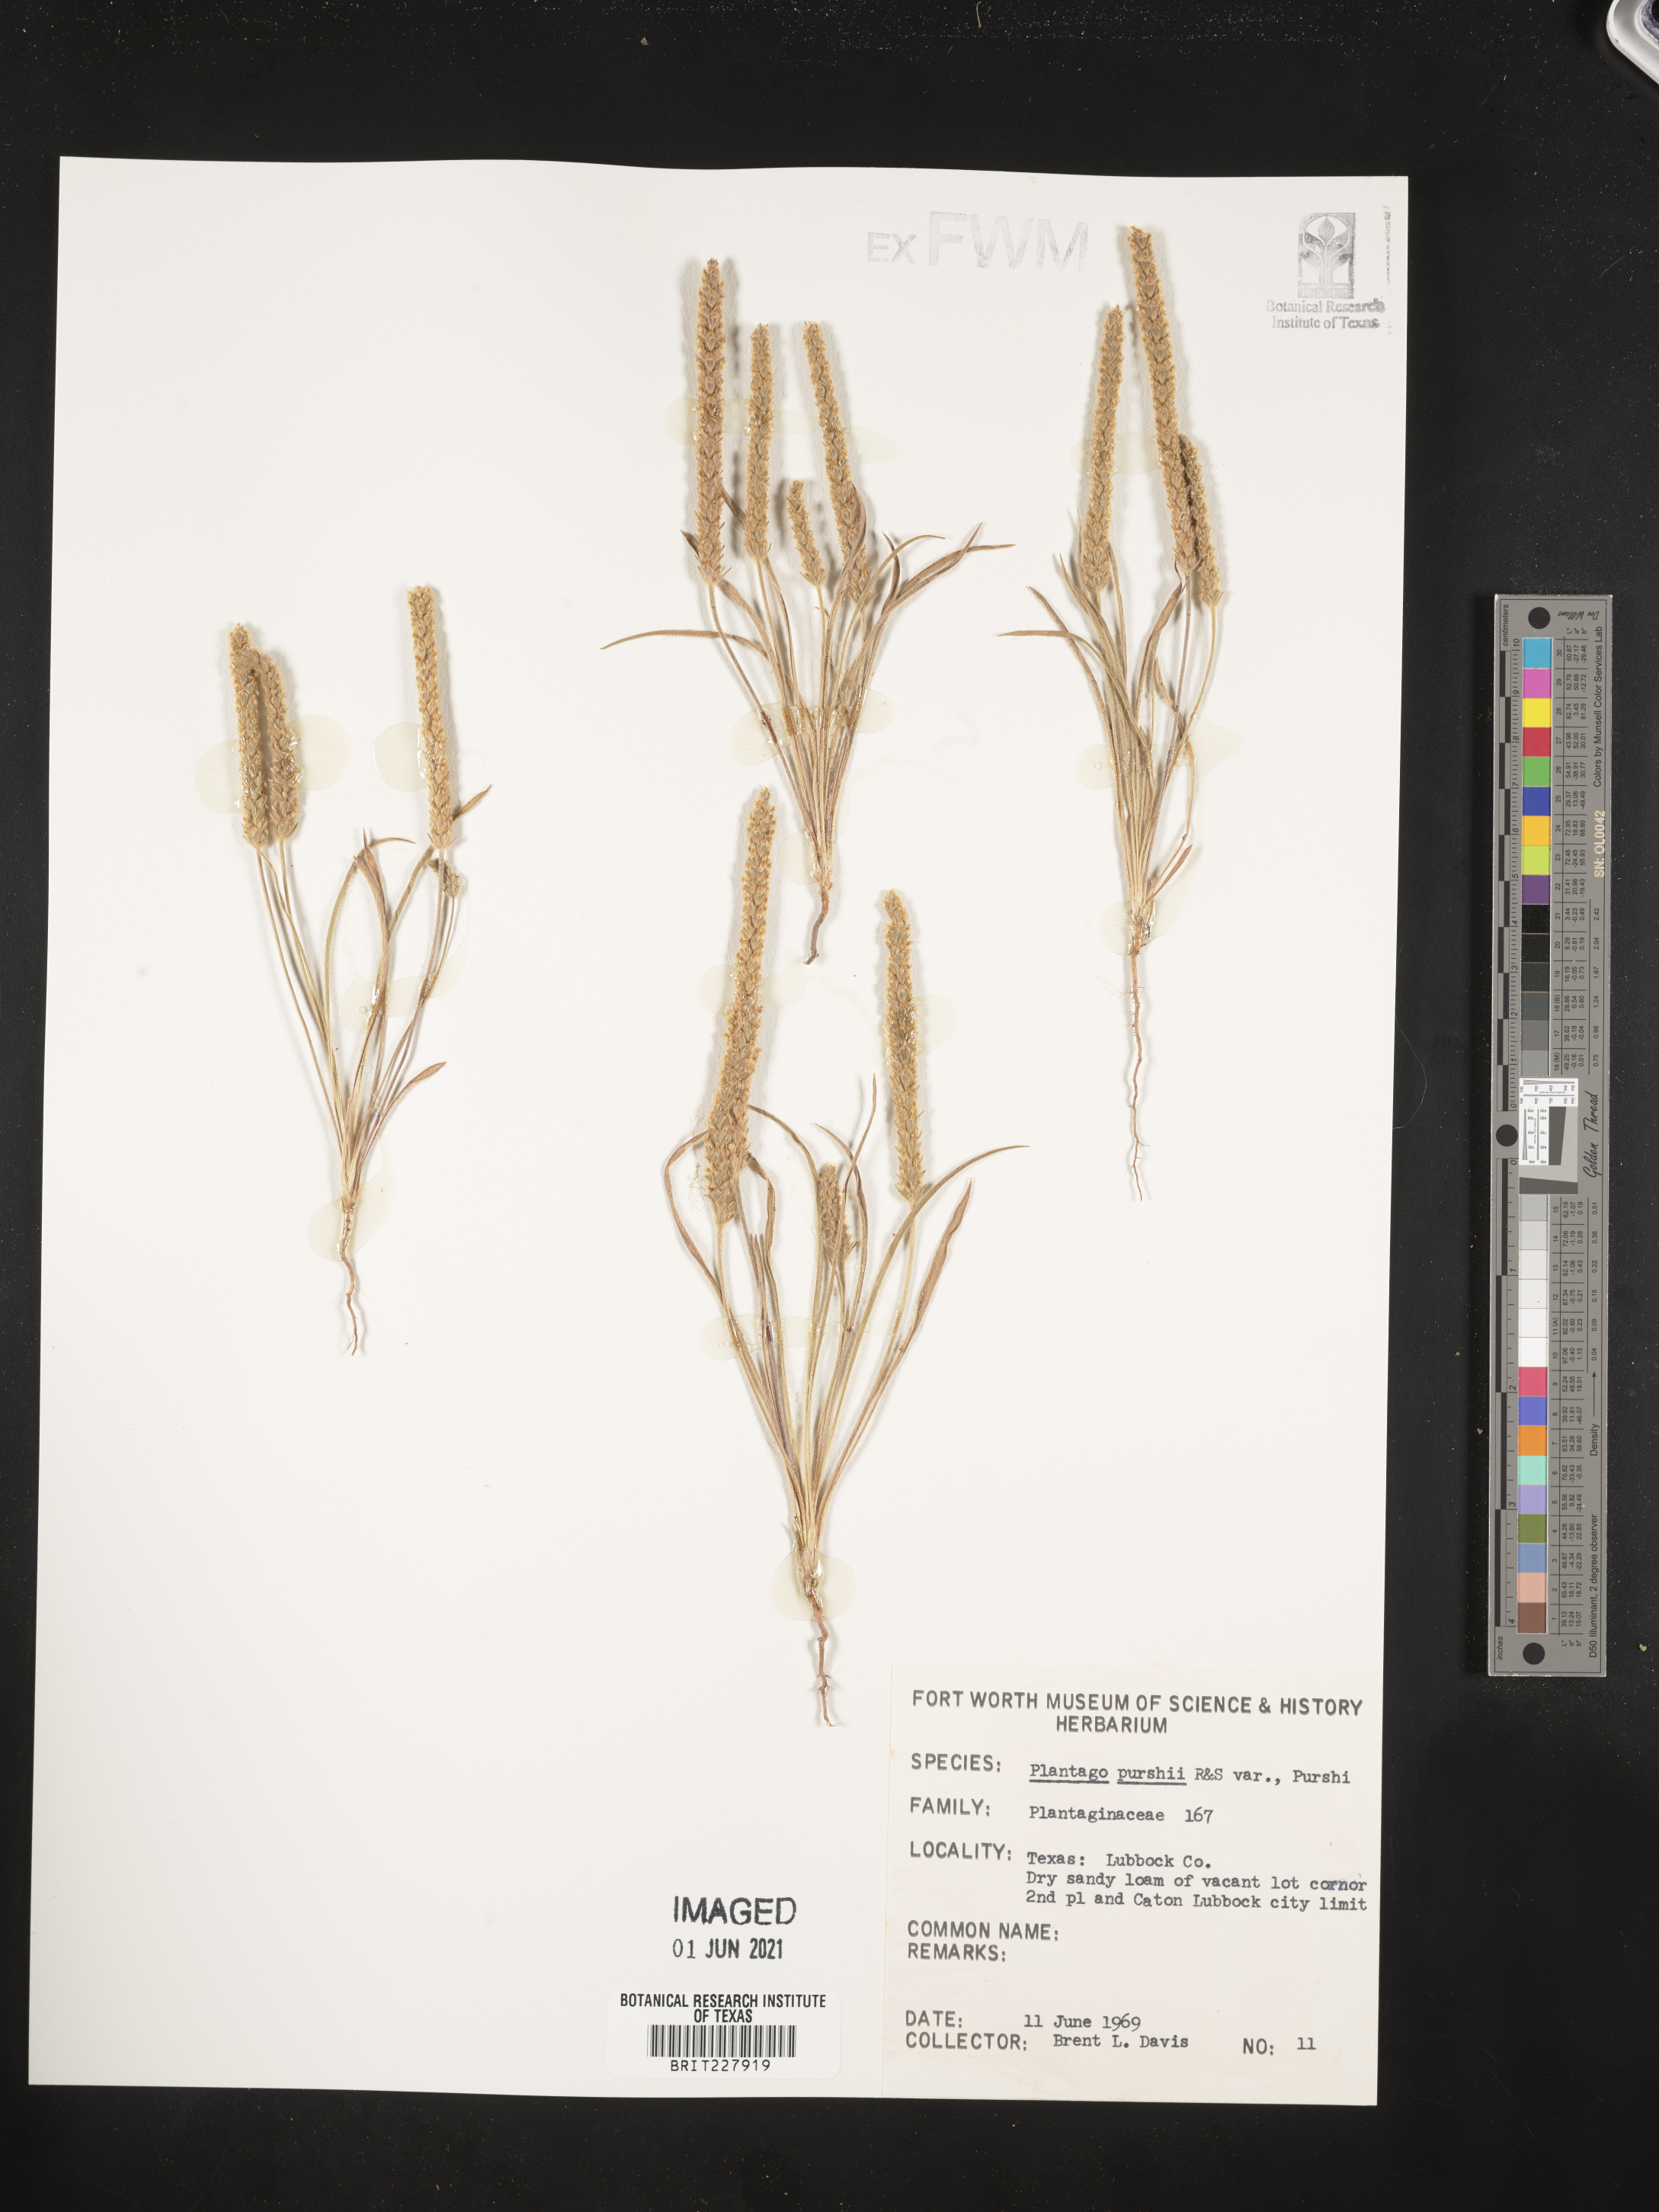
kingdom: Plantae
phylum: Tracheophyta
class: Magnoliopsida
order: Lamiales
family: Plantaginaceae
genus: Plantago
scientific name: Plantago patagonica
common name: Patagonia indian-wheat
